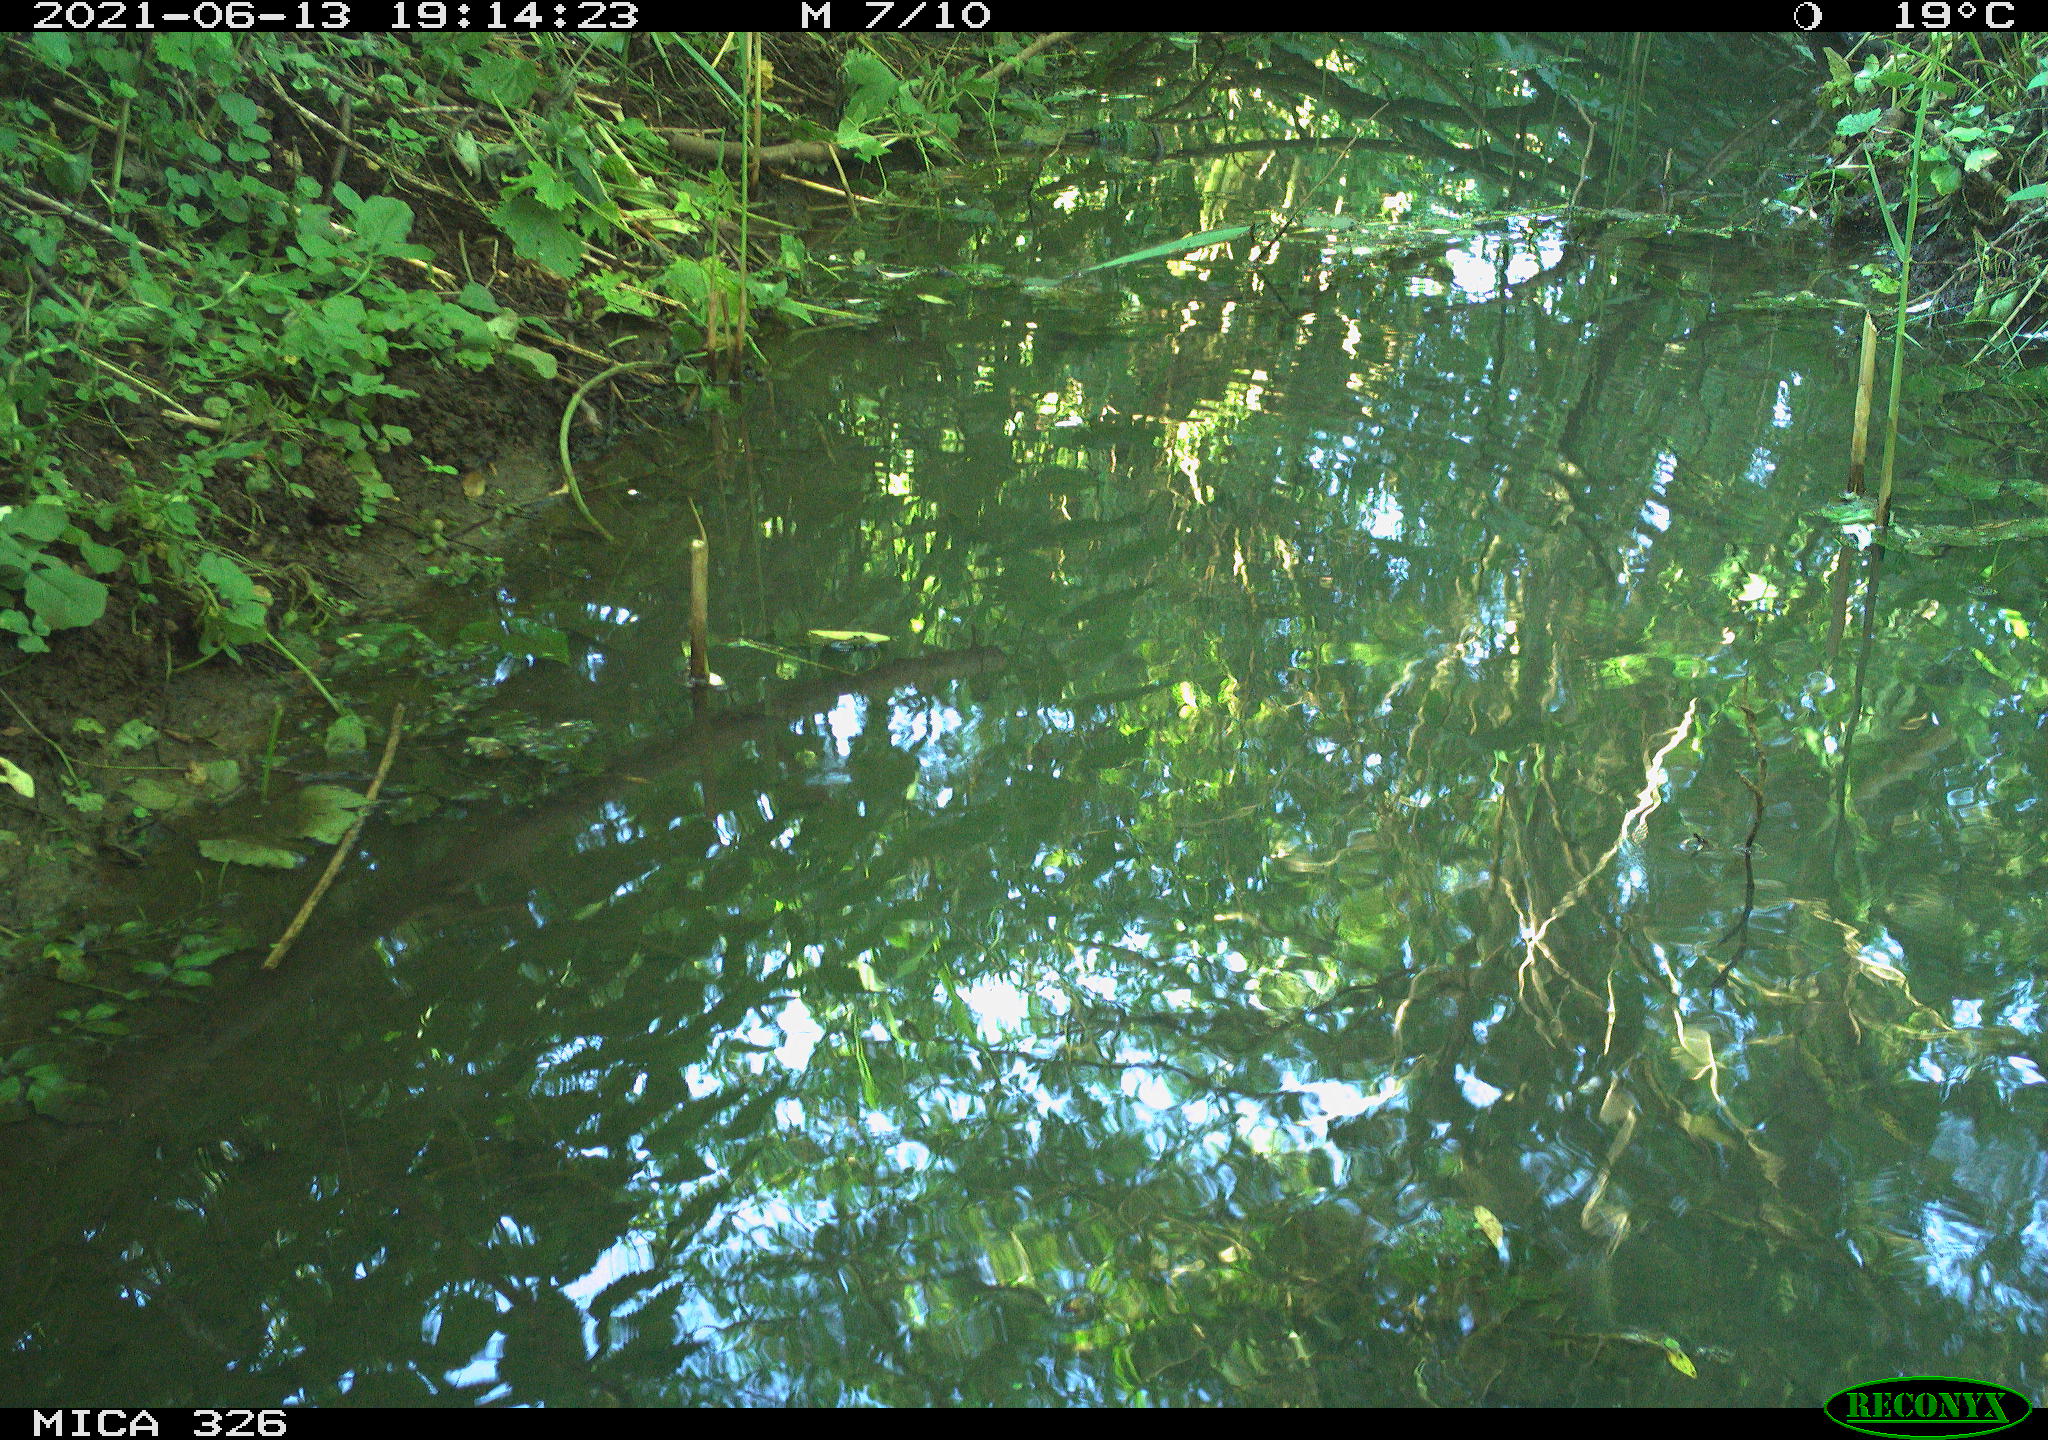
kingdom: Animalia
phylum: Chordata
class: Aves
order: Passeriformes
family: Turdidae
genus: Turdus
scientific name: Turdus iliacus
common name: Redwing
